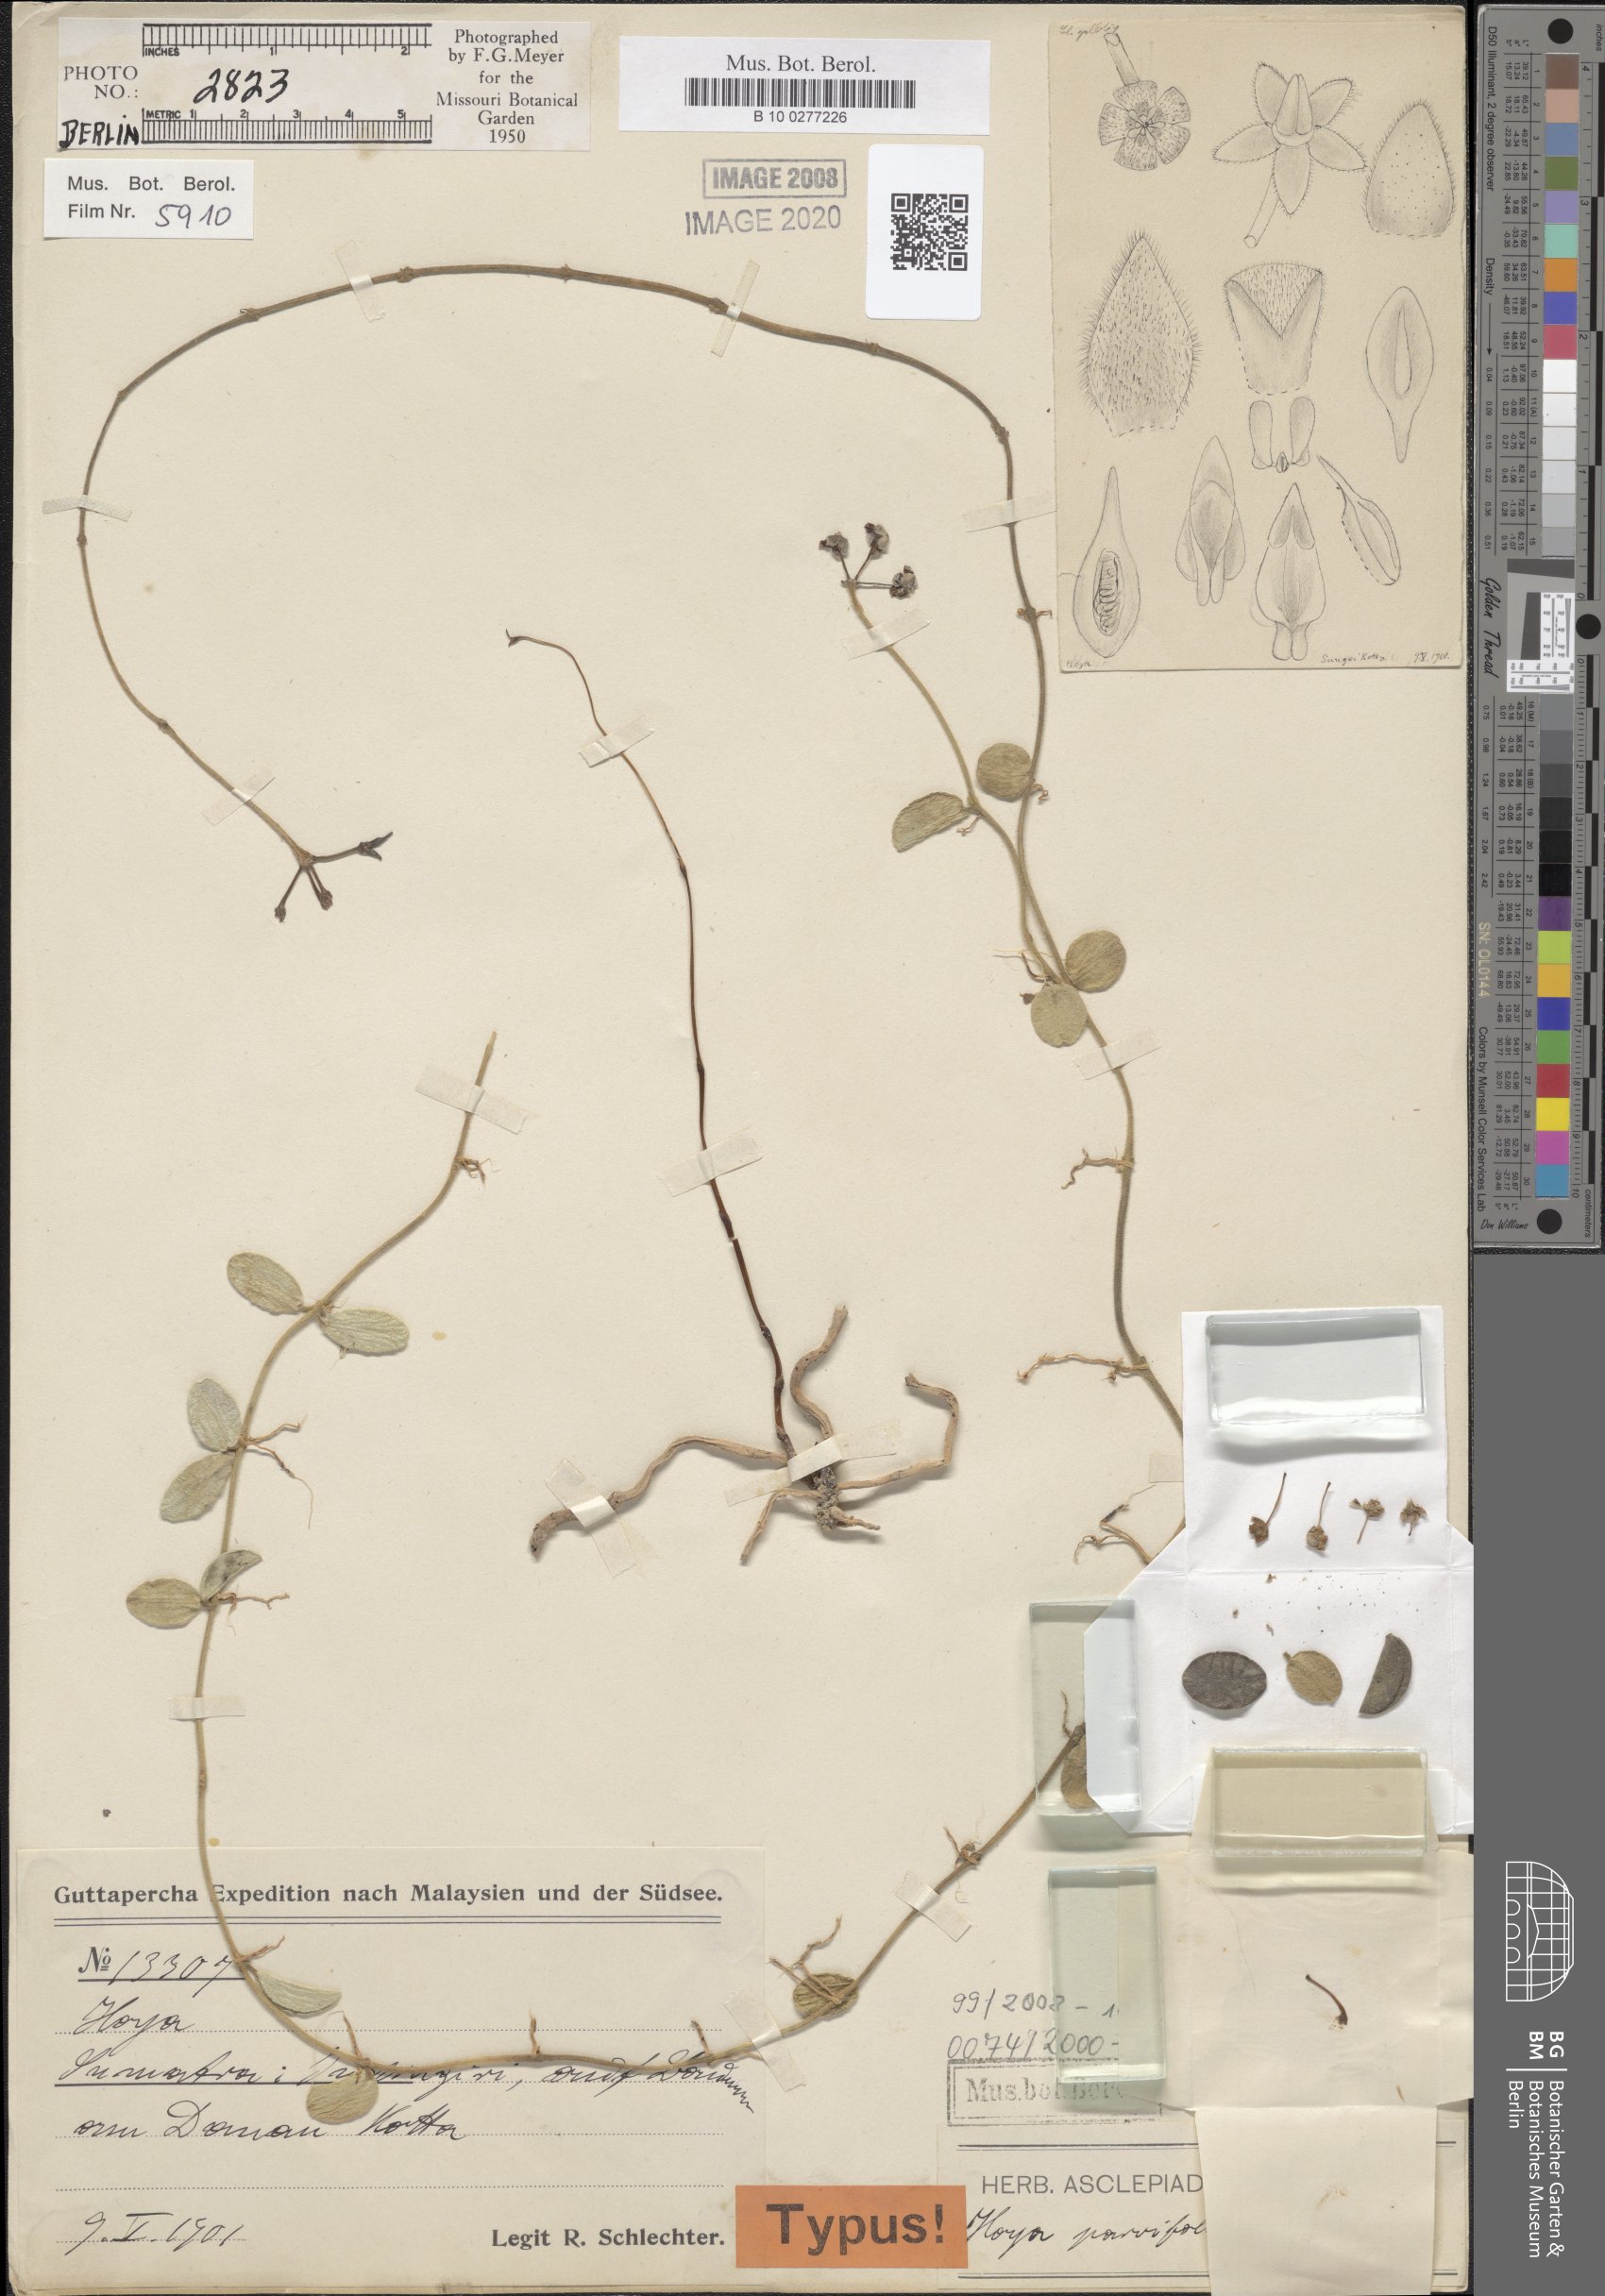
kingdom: Plantae
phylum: Tracheophyta
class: Magnoliopsida
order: Gentianales
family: Apocynaceae
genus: Hoya
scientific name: Hoya parvifolia
